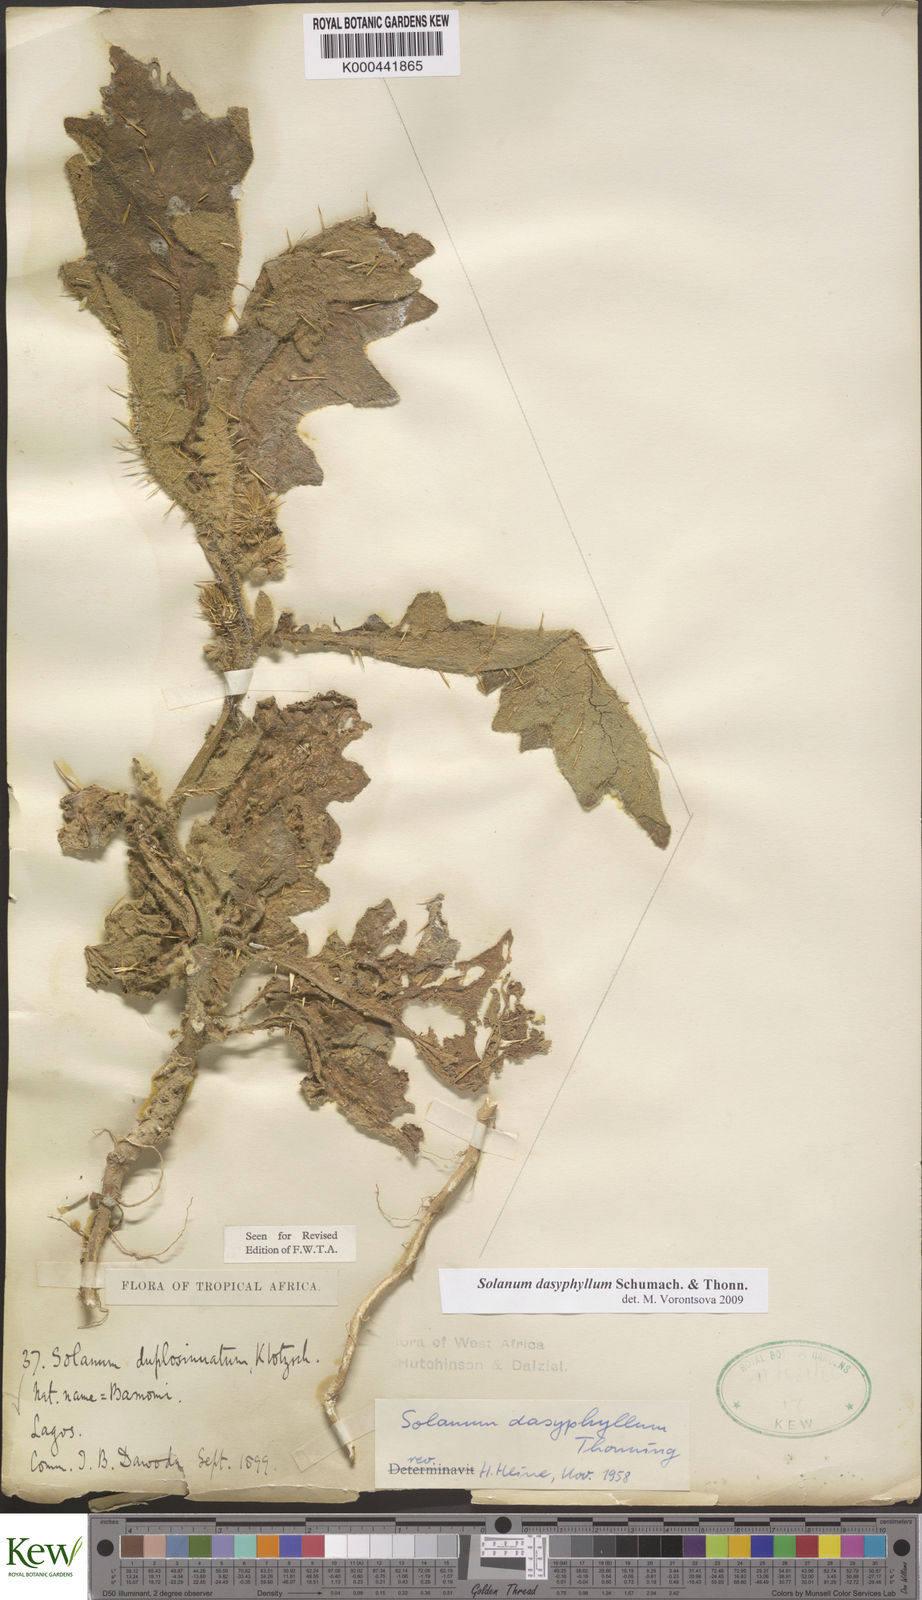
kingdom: Plantae
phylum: Tracheophyta
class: Magnoliopsida
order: Solanales
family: Solanaceae
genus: Solanum
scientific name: Solanum dasyphyllum
